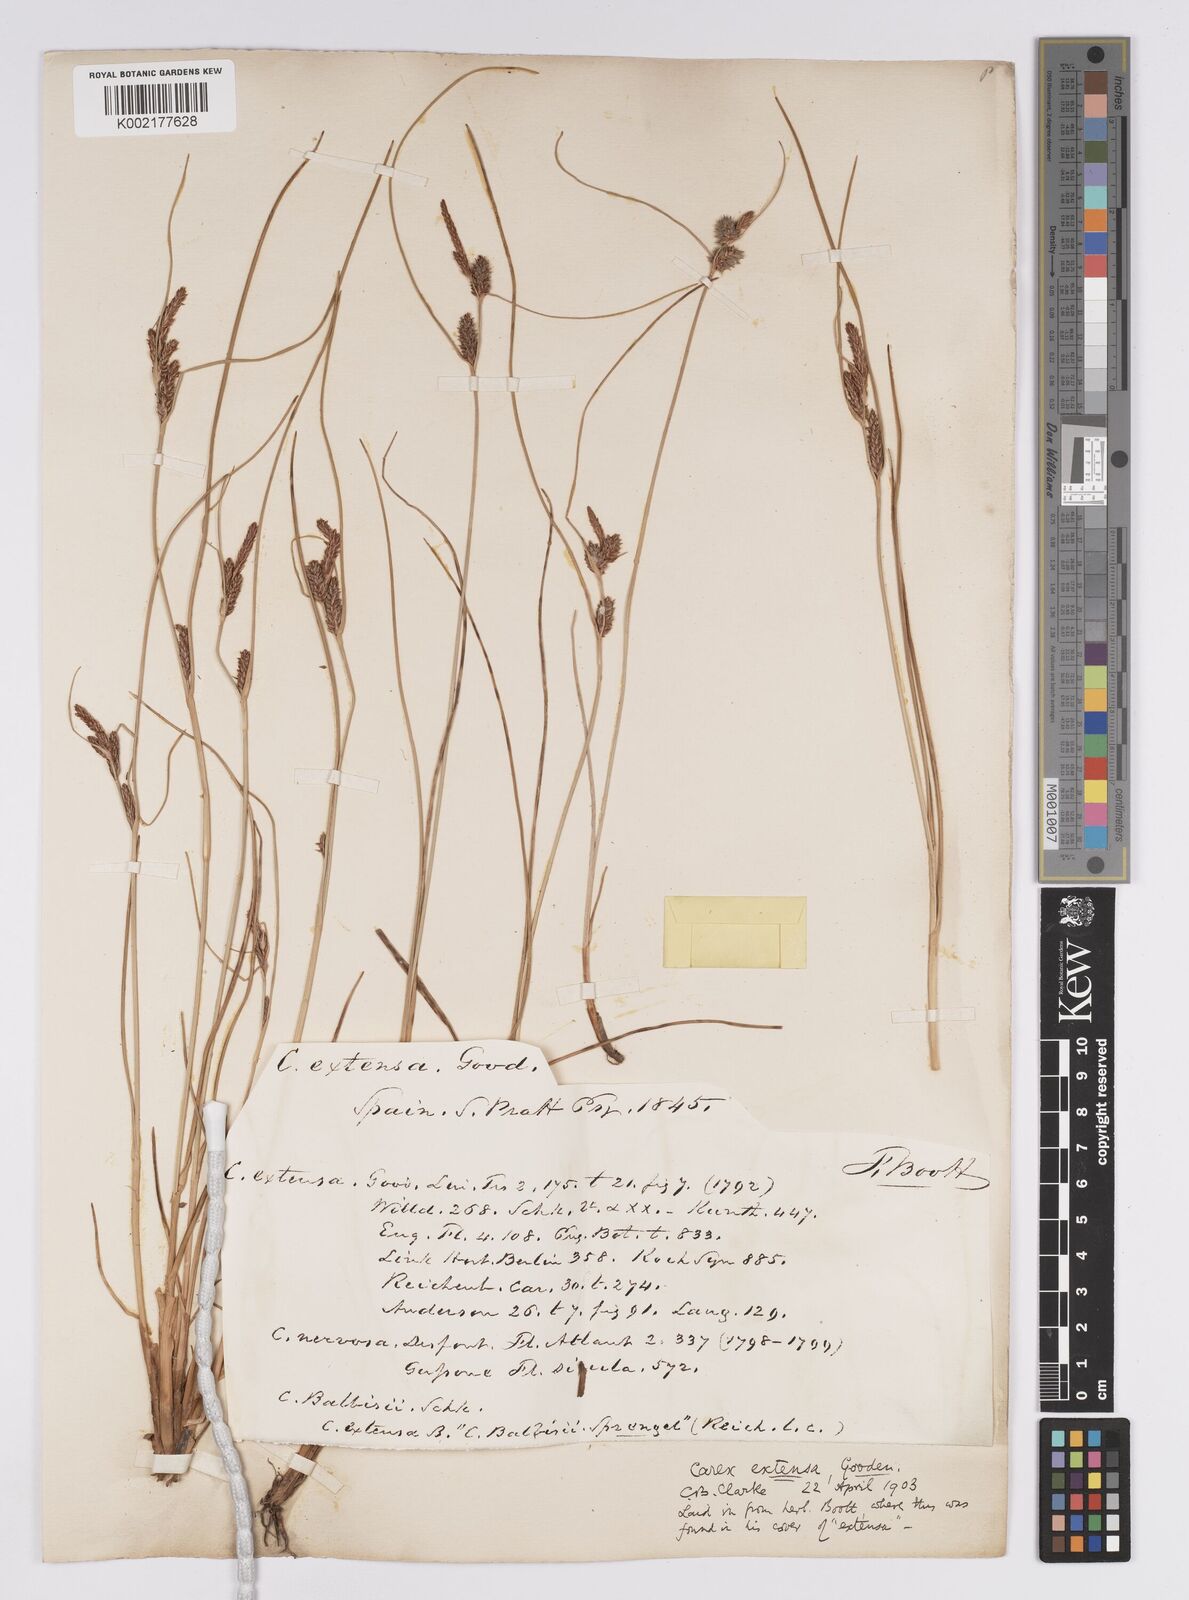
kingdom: Plantae
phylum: Tracheophyta
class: Liliopsida
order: Poales
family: Cyperaceae
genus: Carex
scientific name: Carex extensa
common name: Long-bracted sedge
